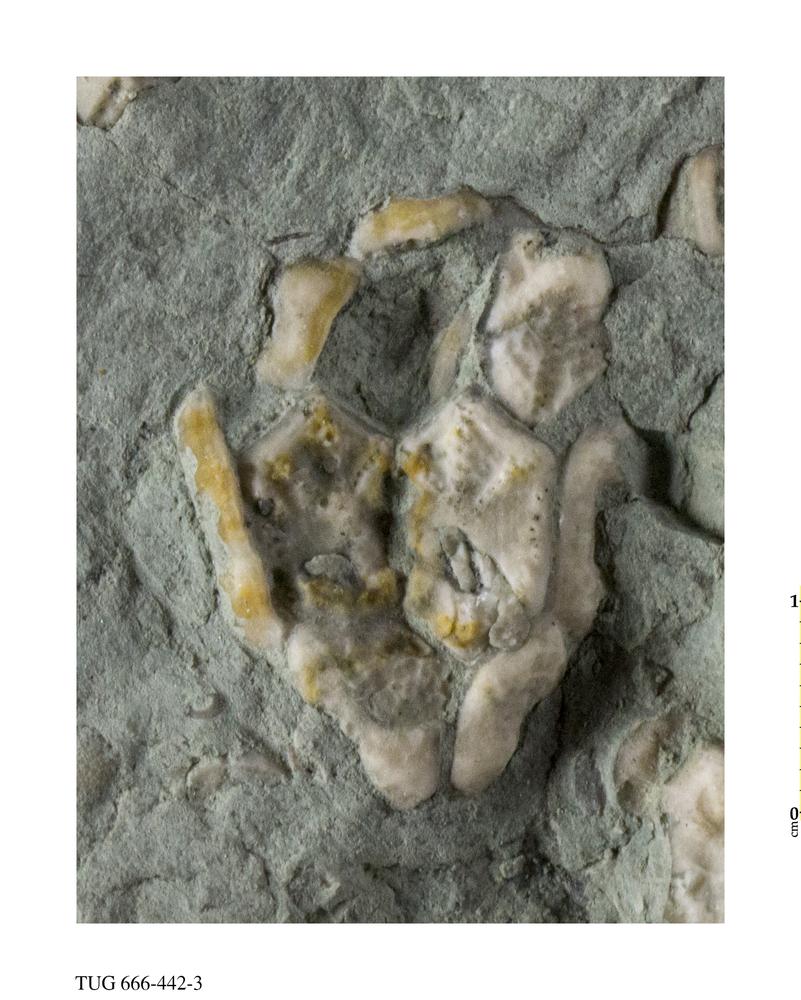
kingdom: Animalia
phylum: Echinodermata
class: Crinoidea
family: Hemicosmitidae
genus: Hemicosmites
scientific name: Hemicosmites
